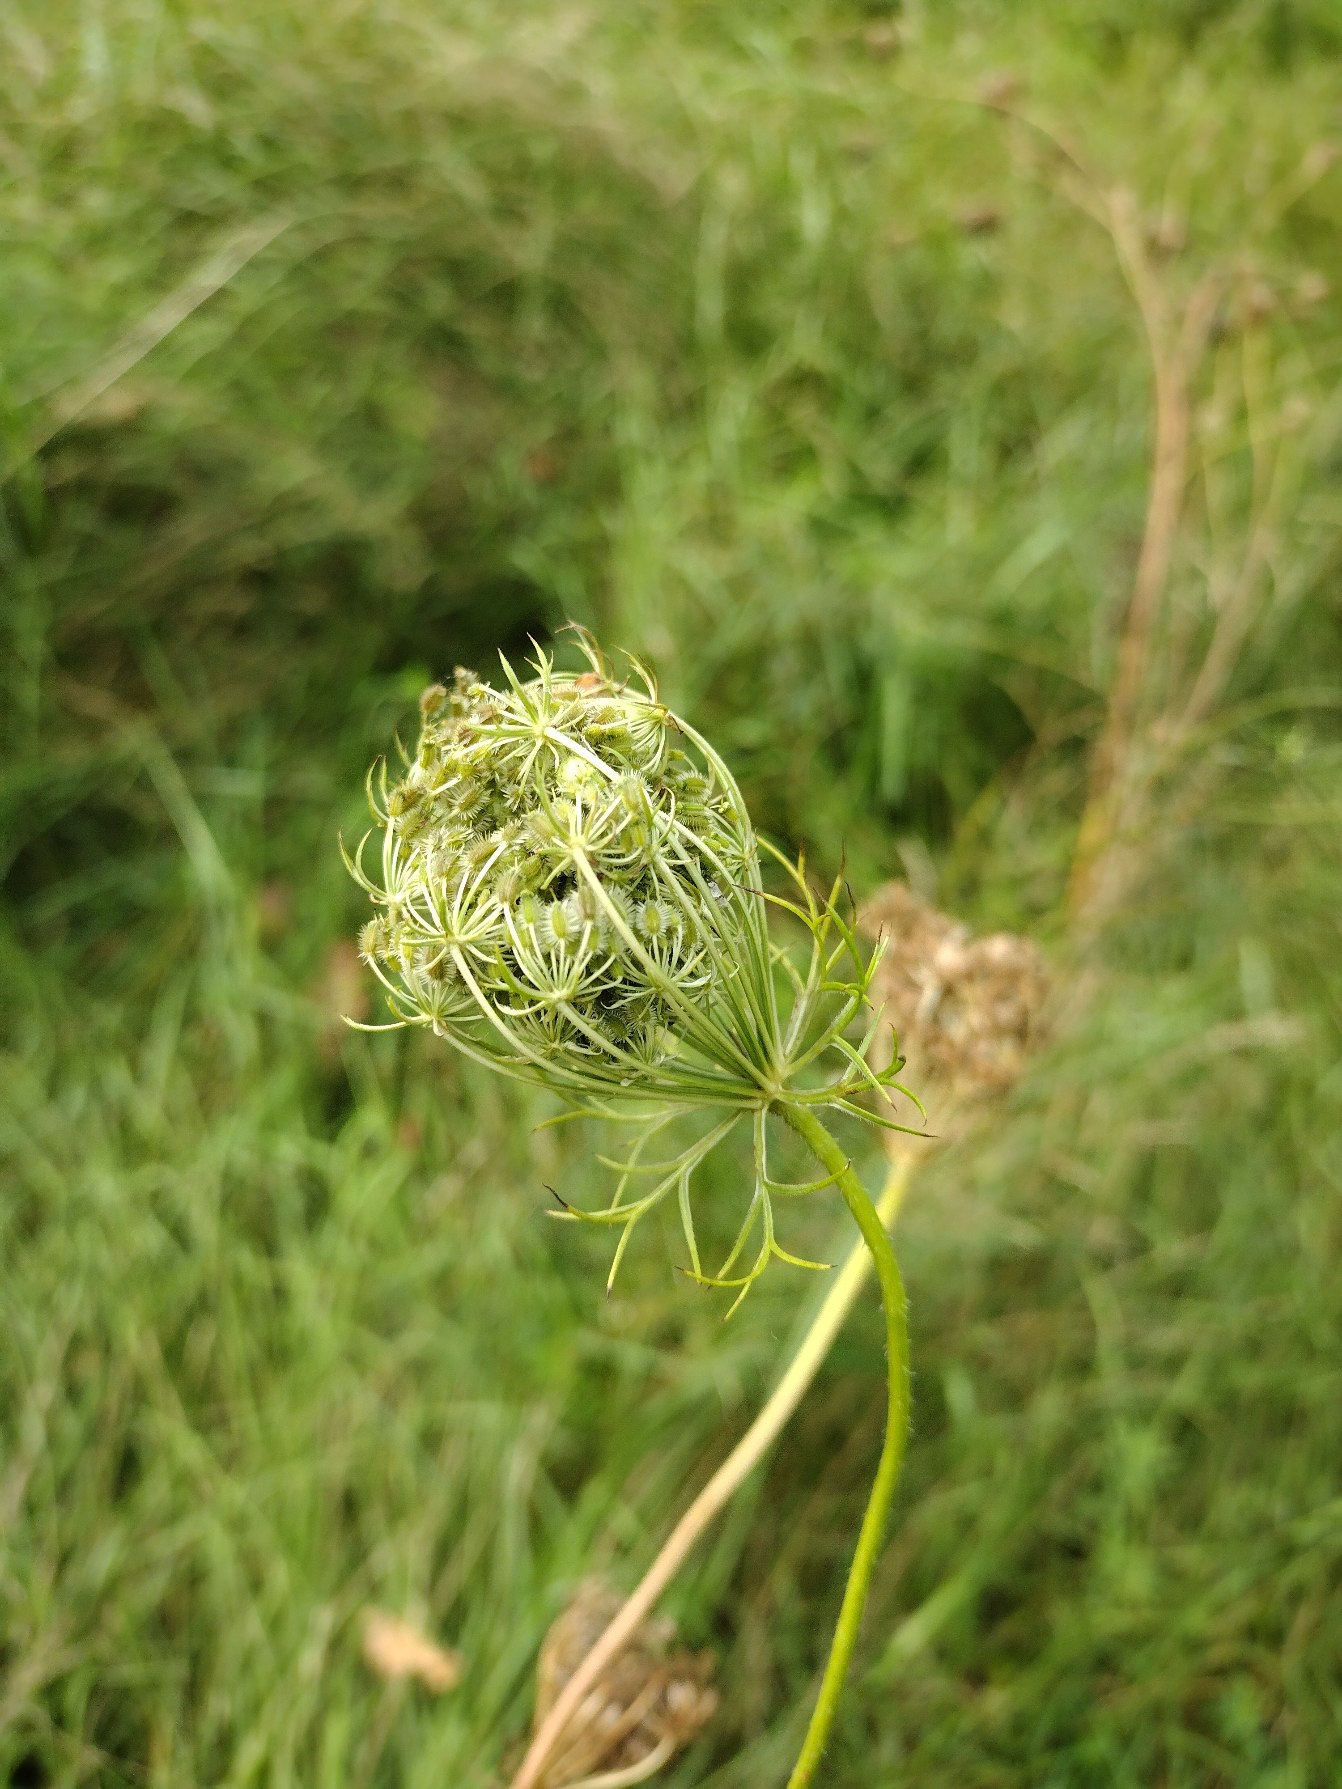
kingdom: Plantae
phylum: Tracheophyta
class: Magnoliopsida
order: Apiales
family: Apiaceae
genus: Daucus
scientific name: Daucus carota
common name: Vild gulerod
